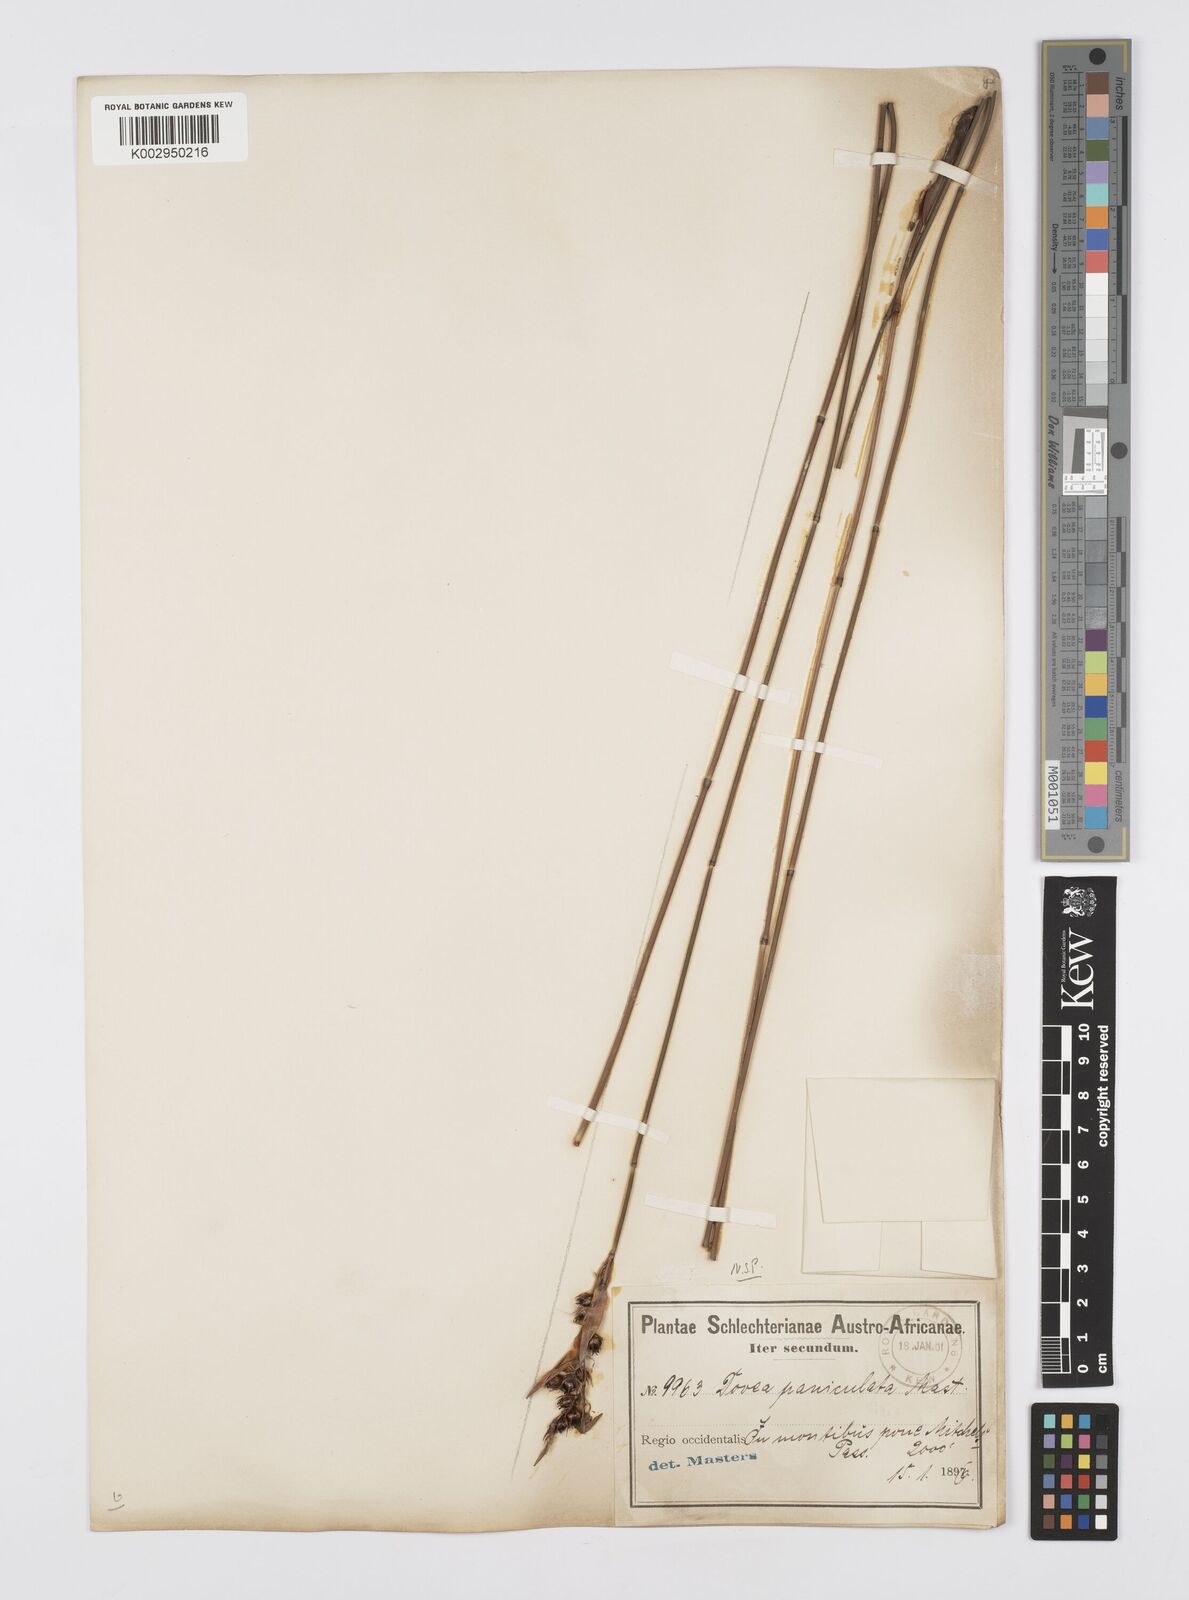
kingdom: Plantae
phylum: Tracheophyta
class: Liliopsida
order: Poales
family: Restionaceae
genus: Askidiosperma
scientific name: Askidiosperma paniculatum
